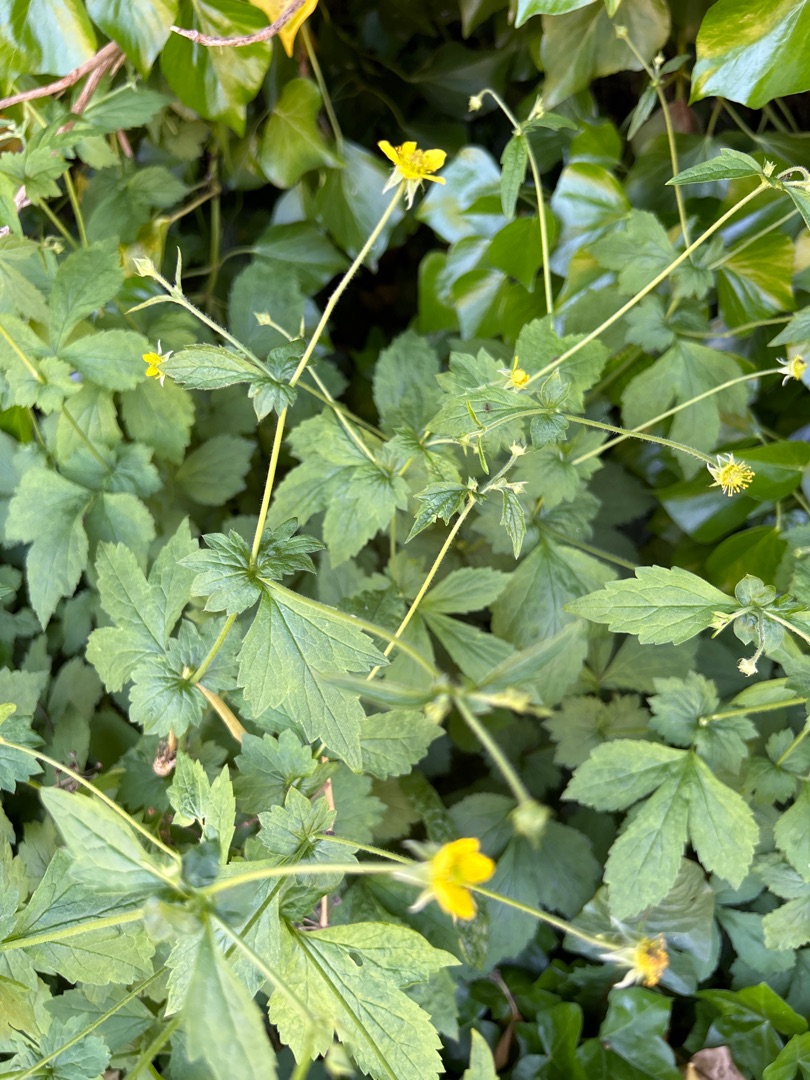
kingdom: Plantae
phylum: Tracheophyta
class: Magnoliopsida
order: Rosales
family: Rosaceae
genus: Geum
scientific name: Geum urbanum
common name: Feber-nellikerod
